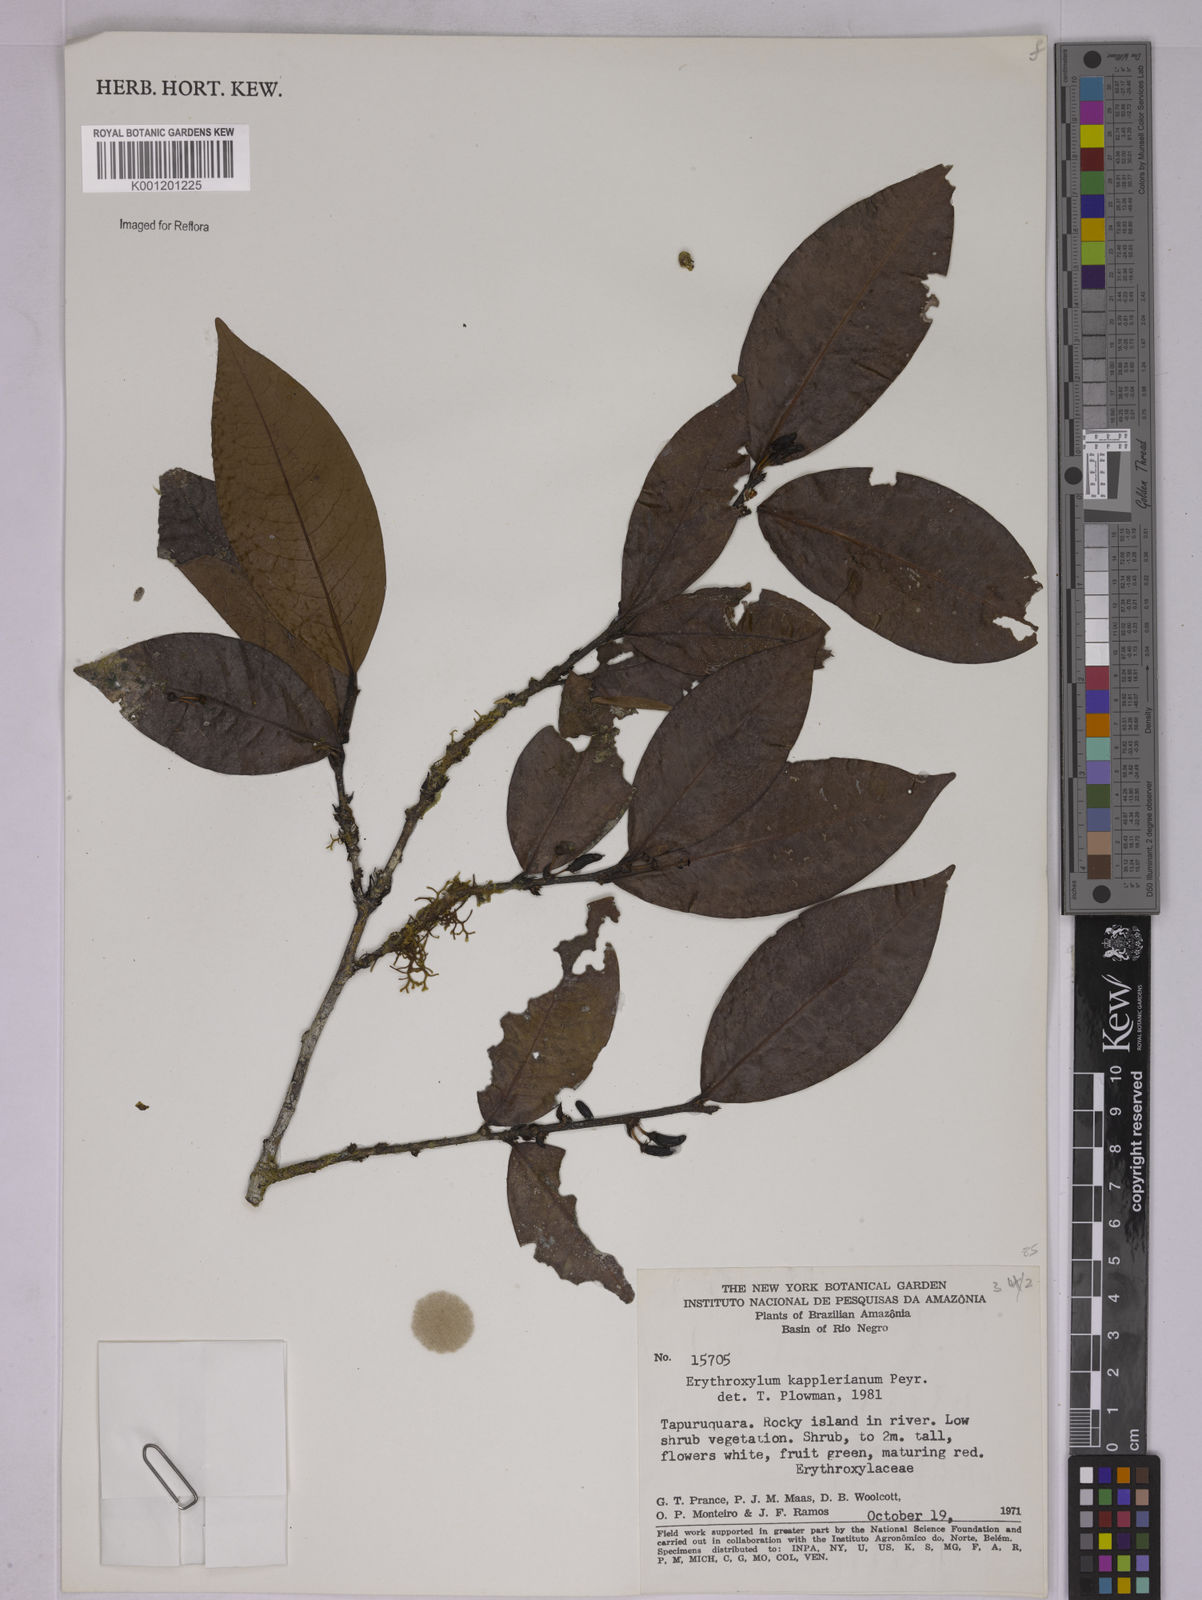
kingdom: Plantae
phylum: Tracheophyta
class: Magnoliopsida
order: Malpighiales
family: Erythroxylaceae
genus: Erythroxylum
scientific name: Erythroxylum kapplerianum
